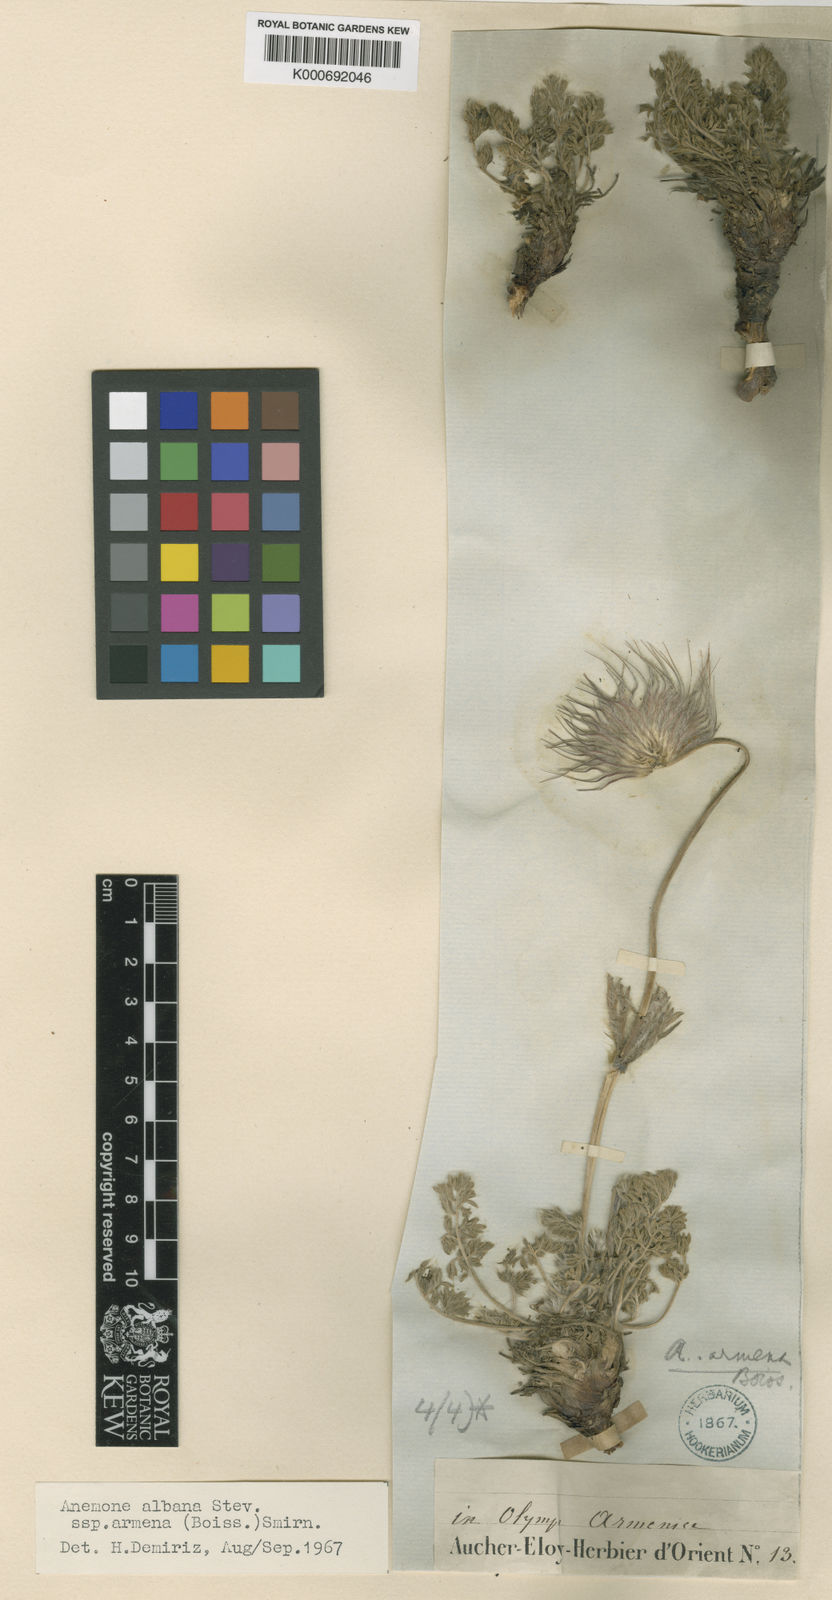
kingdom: Plantae
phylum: Tracheophyta
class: Magnoliopsida
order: Ranunculales
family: Ranunculaceae
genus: Pulsatilla
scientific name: Pulsatilla albana
